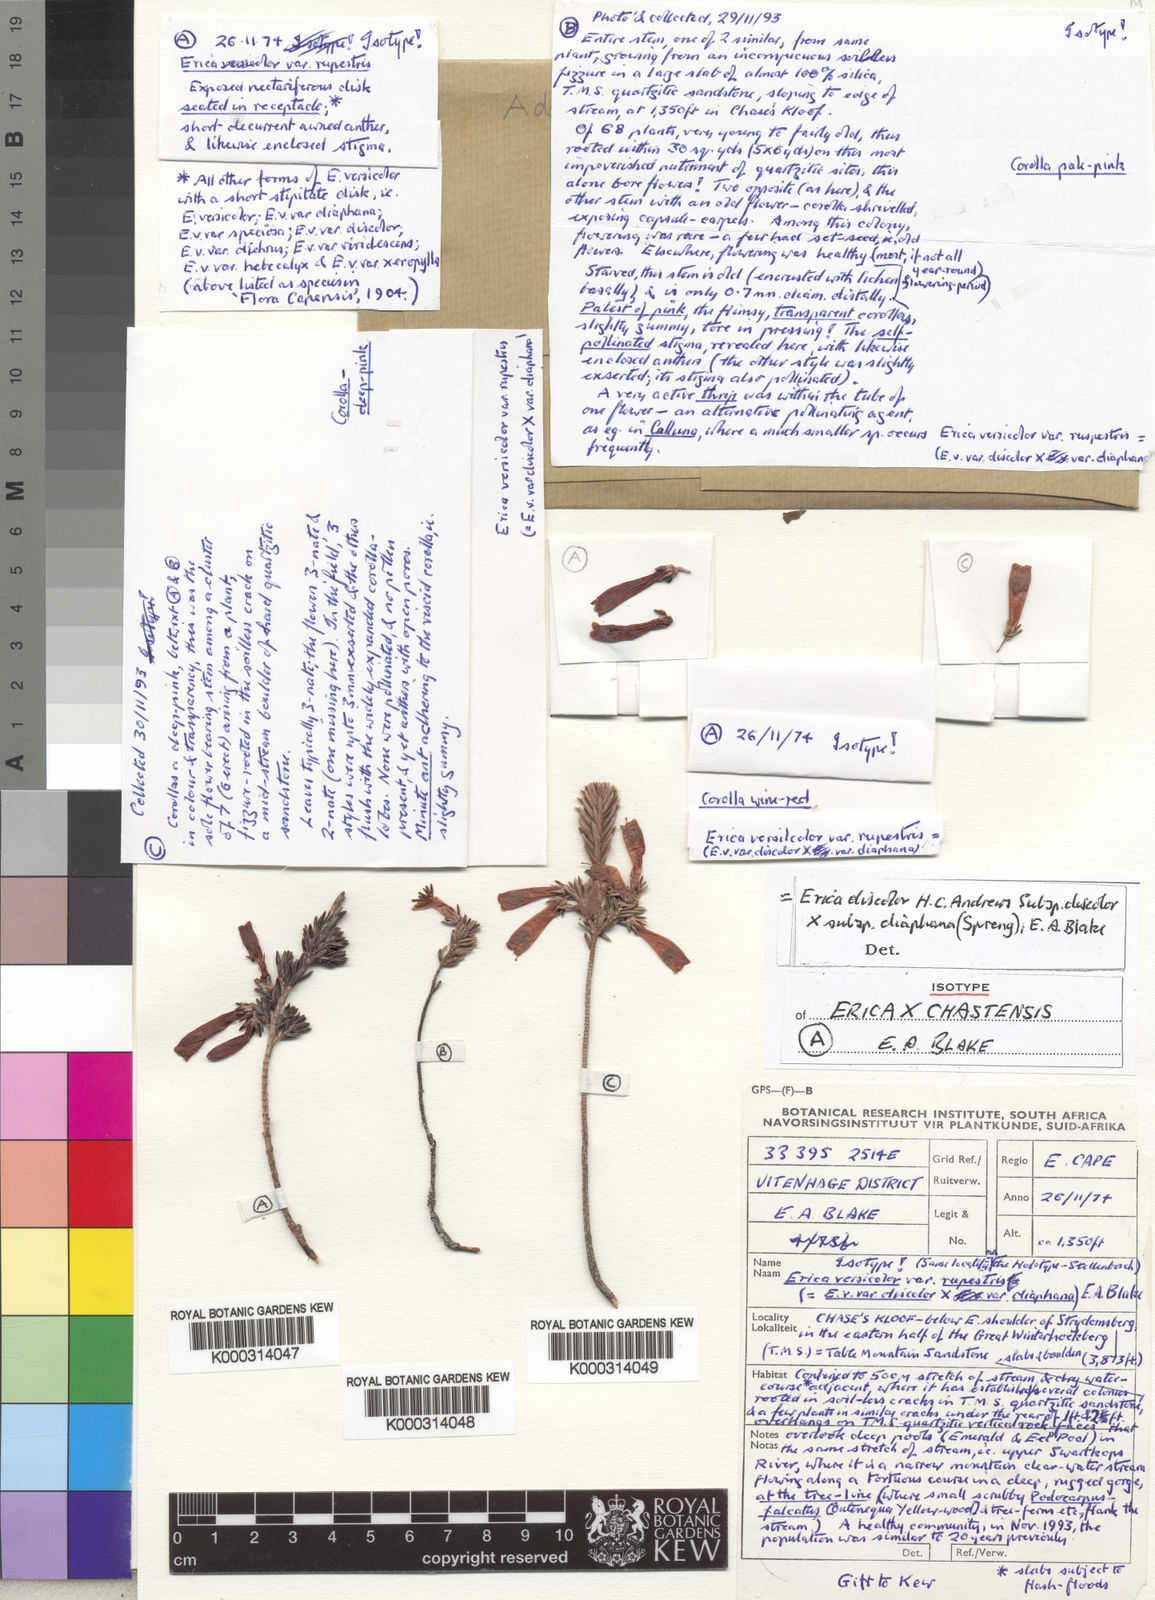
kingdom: Plantae
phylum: Tracheophyta
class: Magnoliopsida
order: Ericales
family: Ericaceae
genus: Erica
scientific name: Erica versicolor
